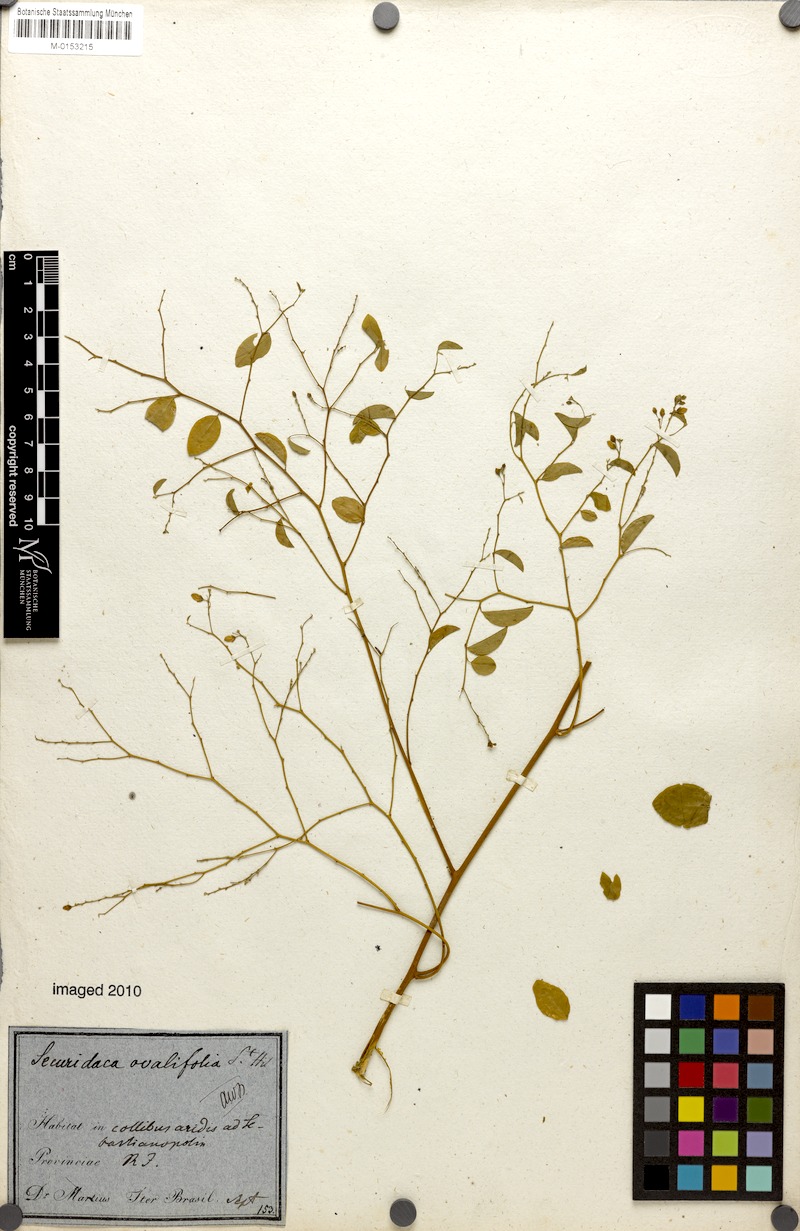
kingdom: Plantae
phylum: Tracheophyta
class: Magnoliopsida
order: Fabales
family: Polygalaceae
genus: Securidaca
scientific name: Securidaca ovalifolia
